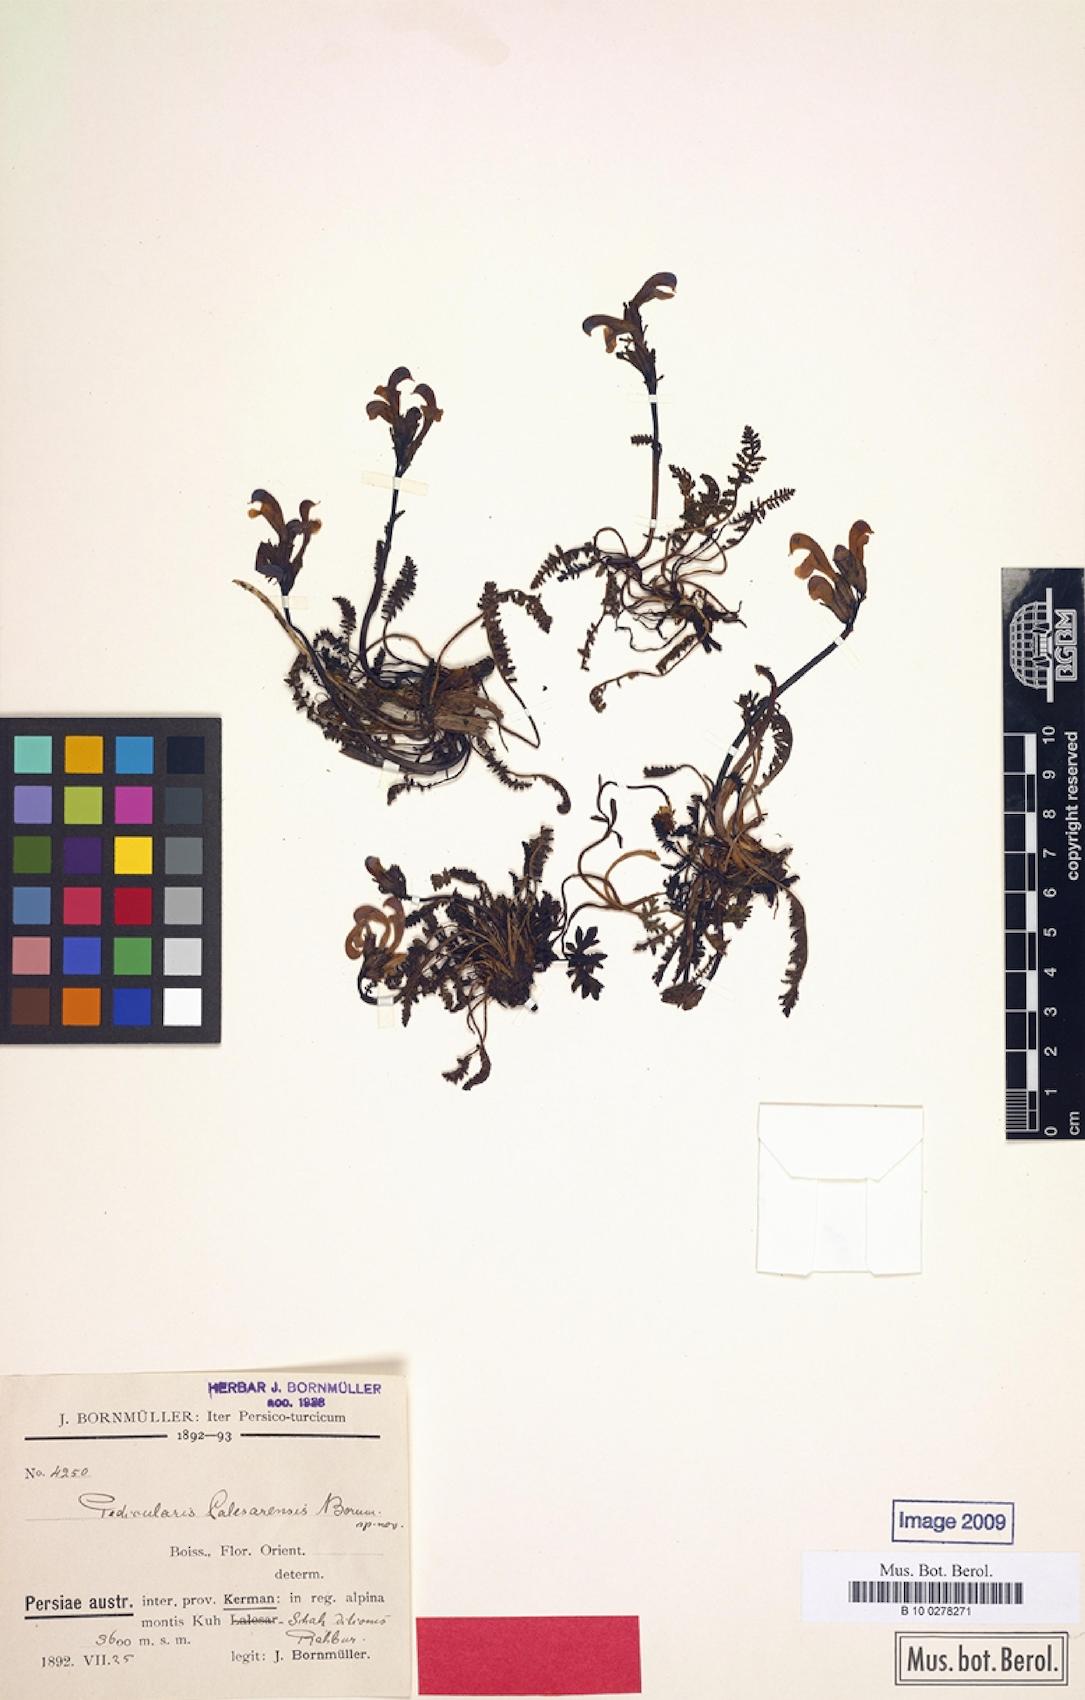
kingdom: Plantae
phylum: Tracheophyta
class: Magnoliopsida
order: Lamiales
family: Orobanchaceae
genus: Pedicularis
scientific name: Pedicularis cabulica
